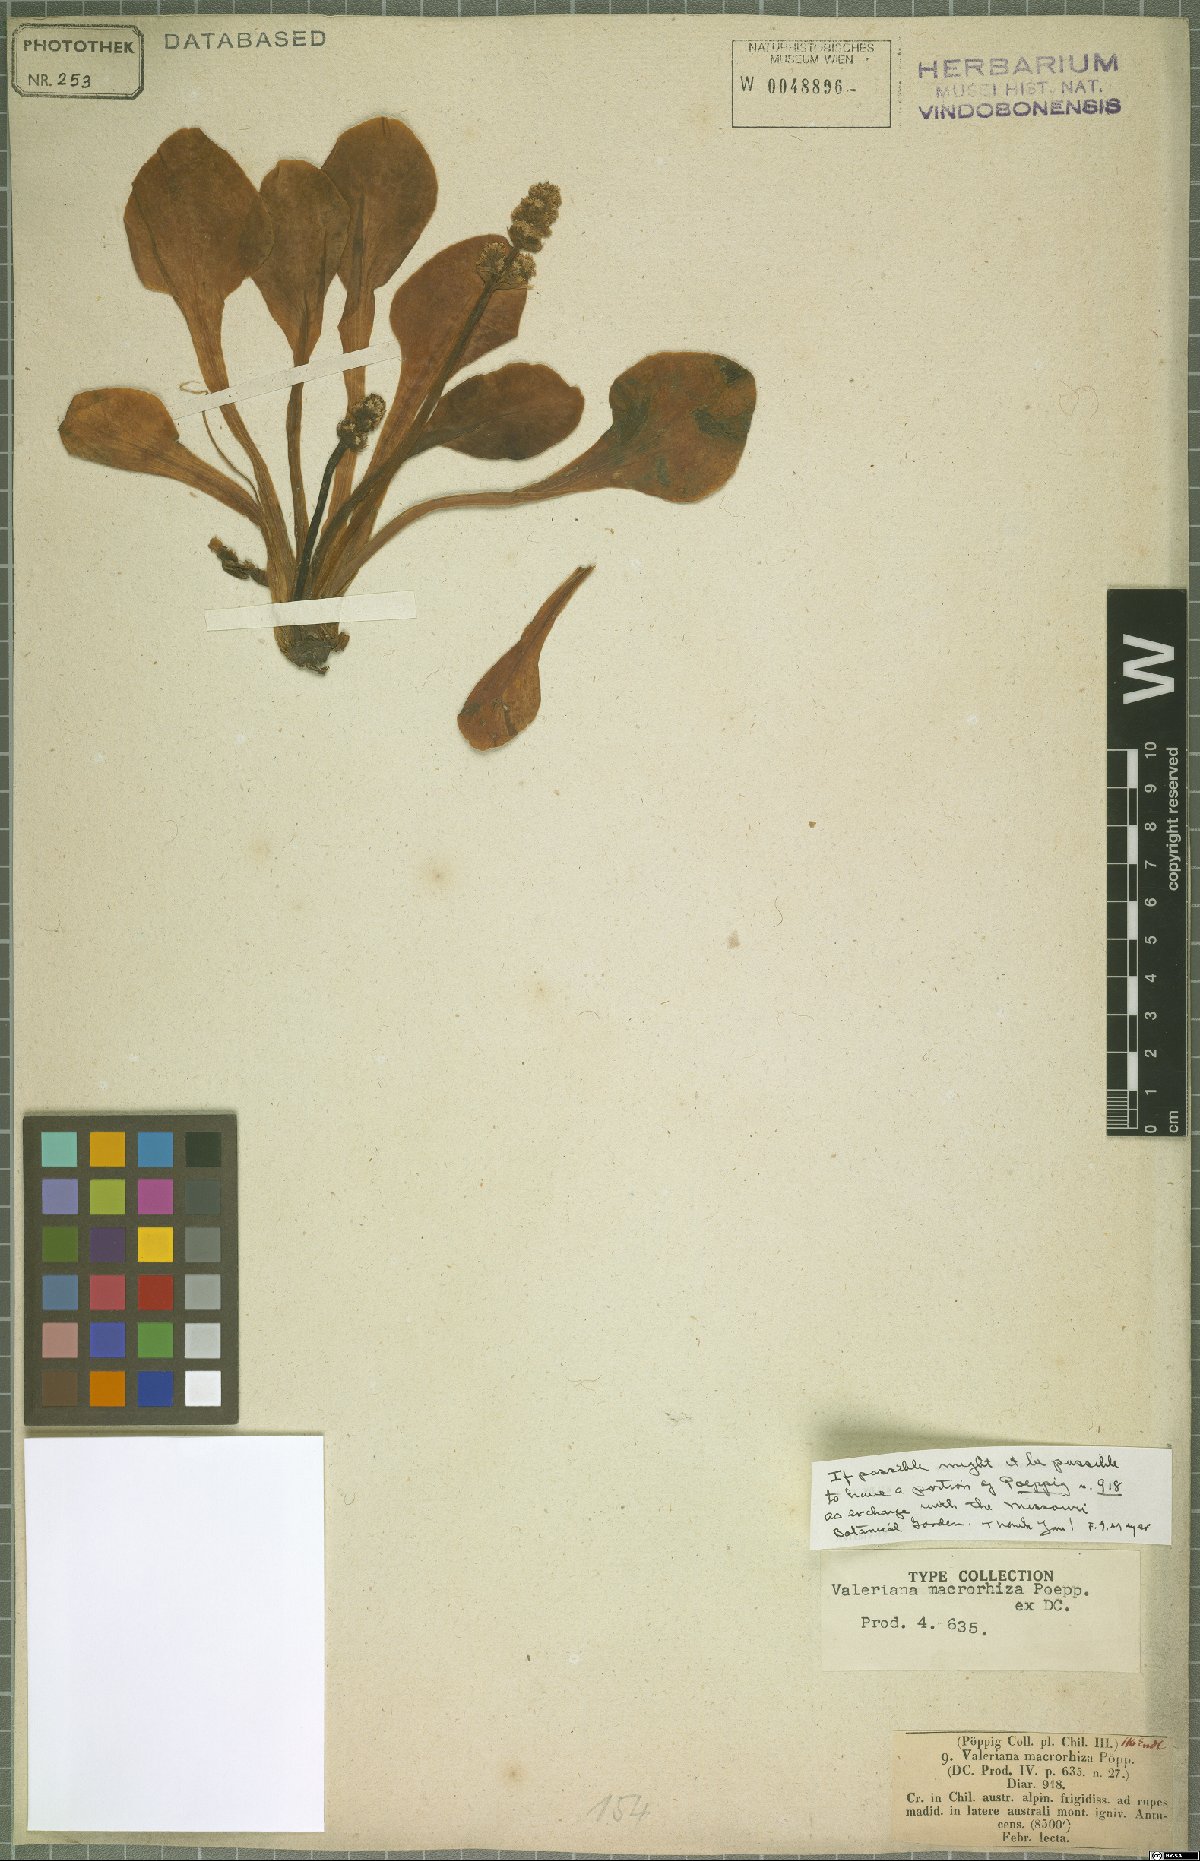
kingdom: Plantae
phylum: Tracheophyta
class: Magnoliopsida
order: Dipsacales
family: Caprifoliaceae
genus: Valeriana
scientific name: Valeriana macrorhiza
